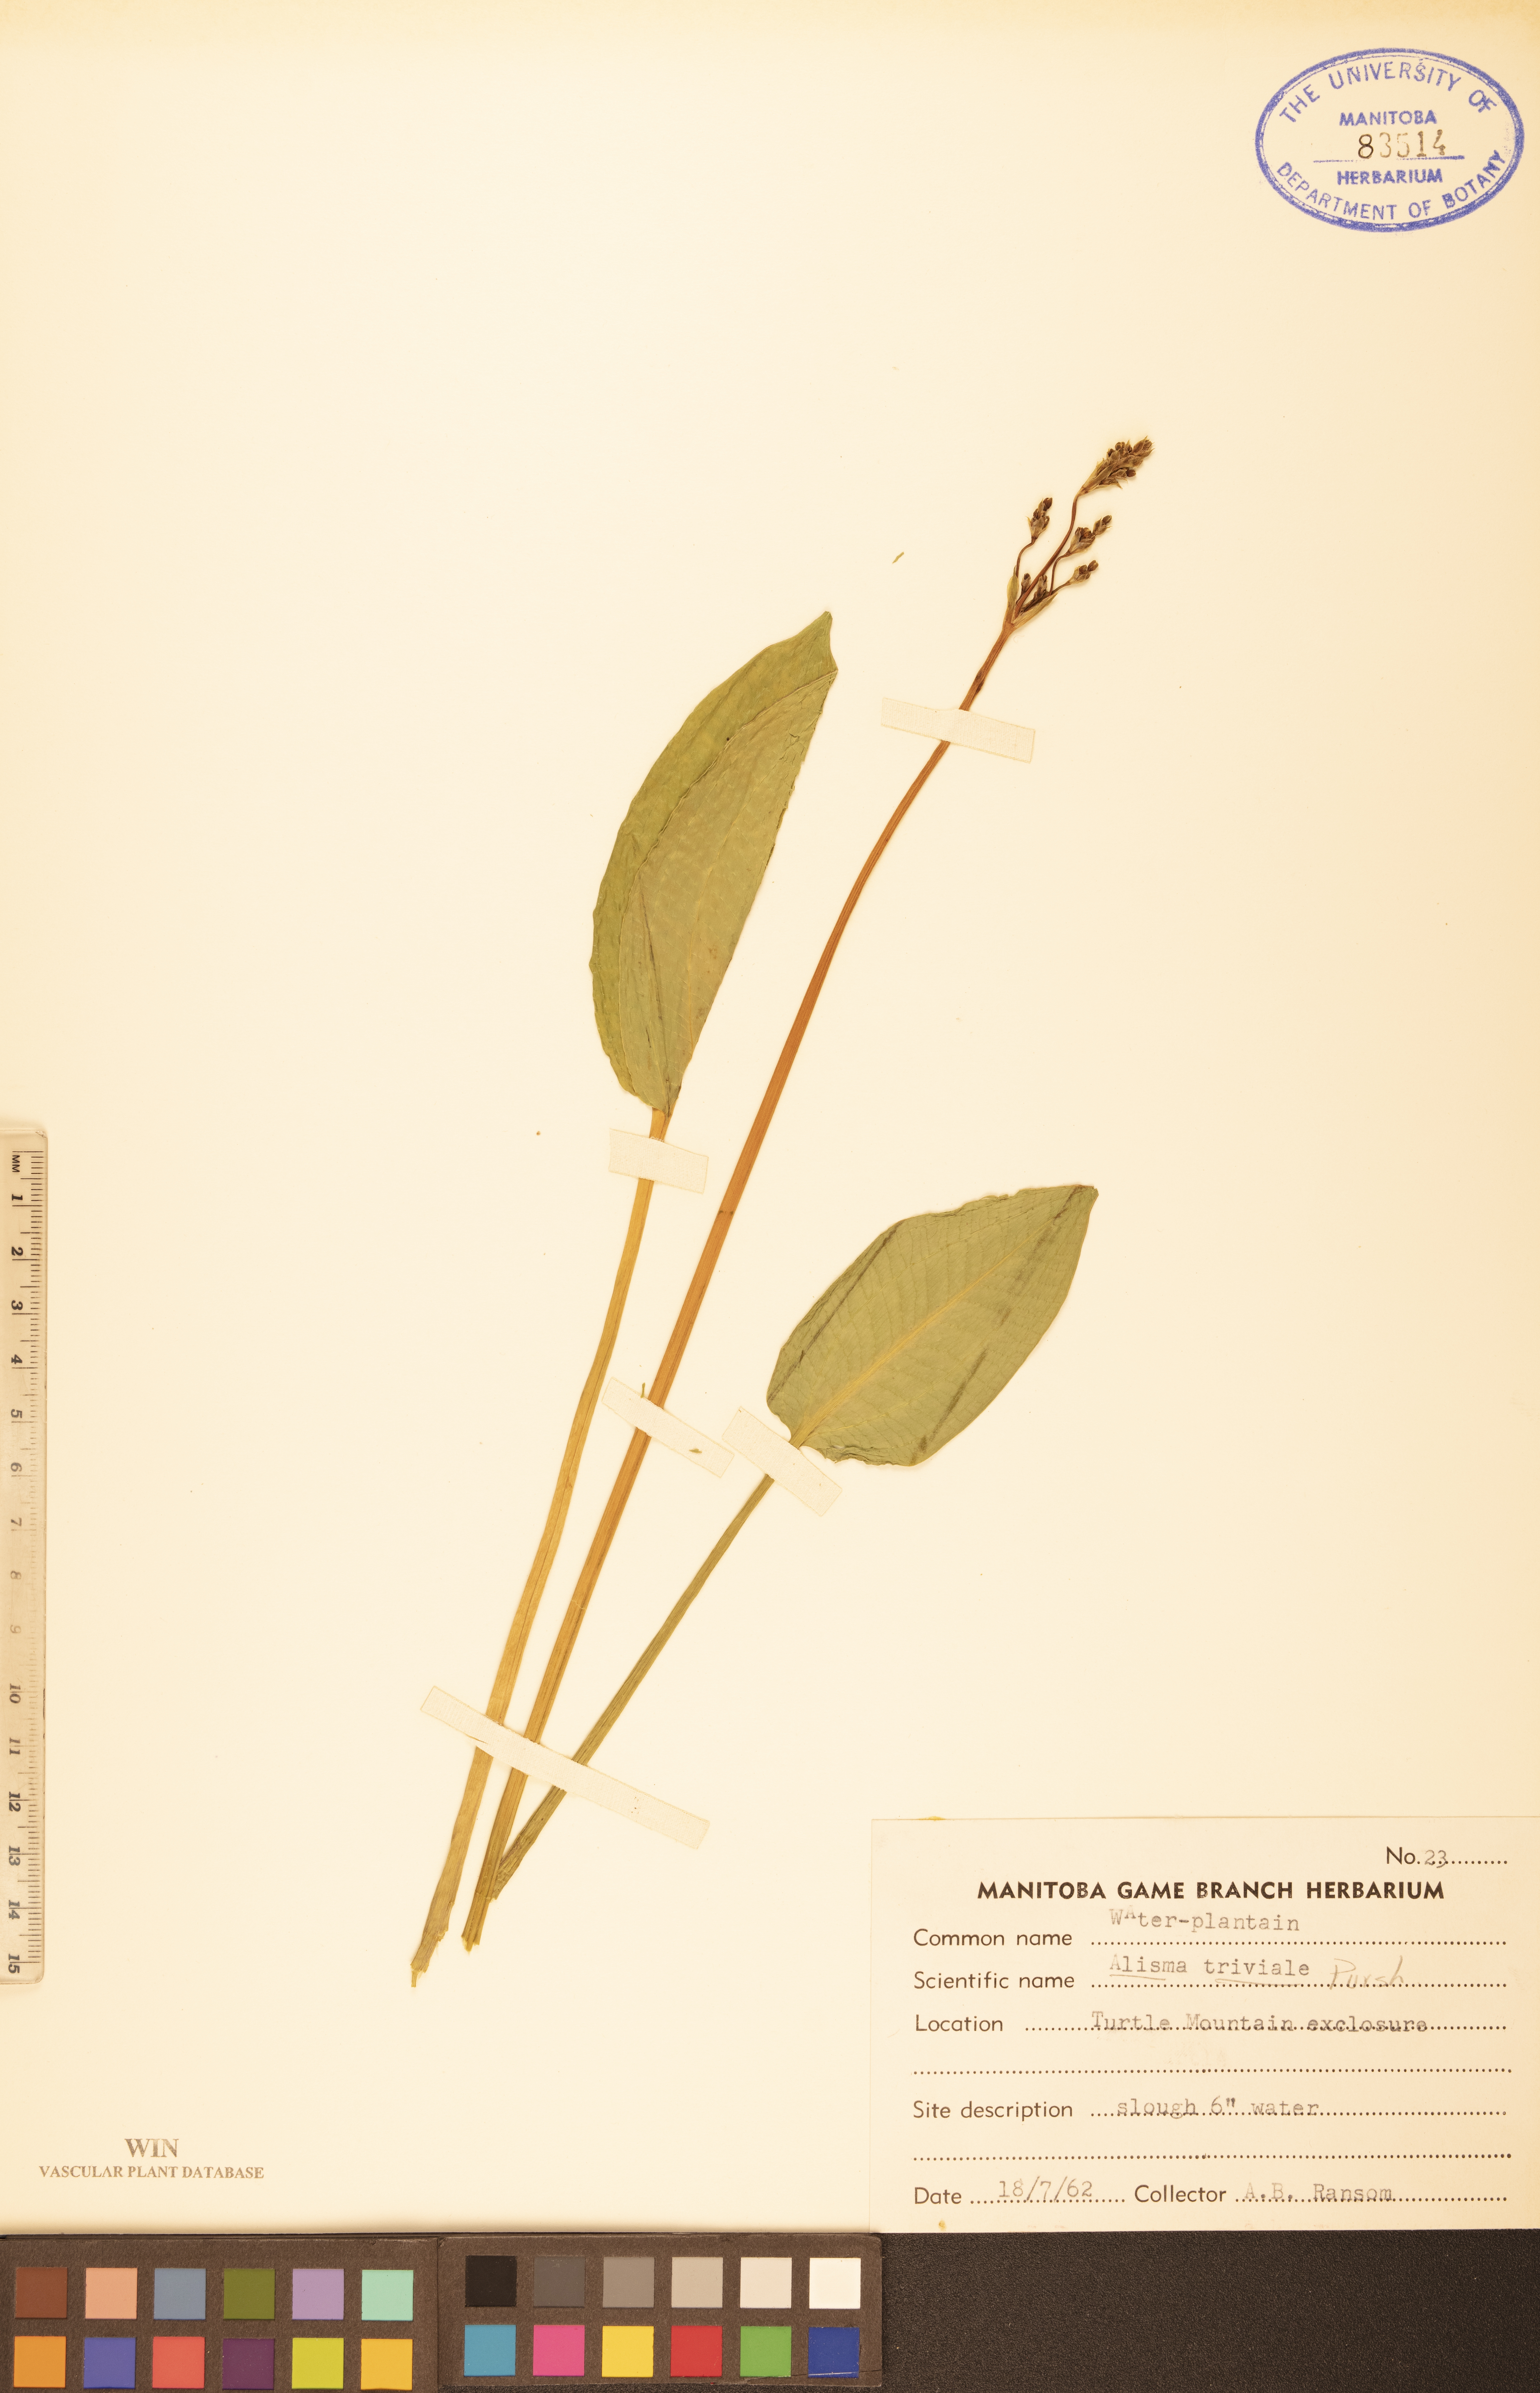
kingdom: Plantae
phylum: Tracheophyta
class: Liliopsida
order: Alismatales
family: Alismataceae
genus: Alisma
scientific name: Alisma triviale
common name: Northern water-plantain
